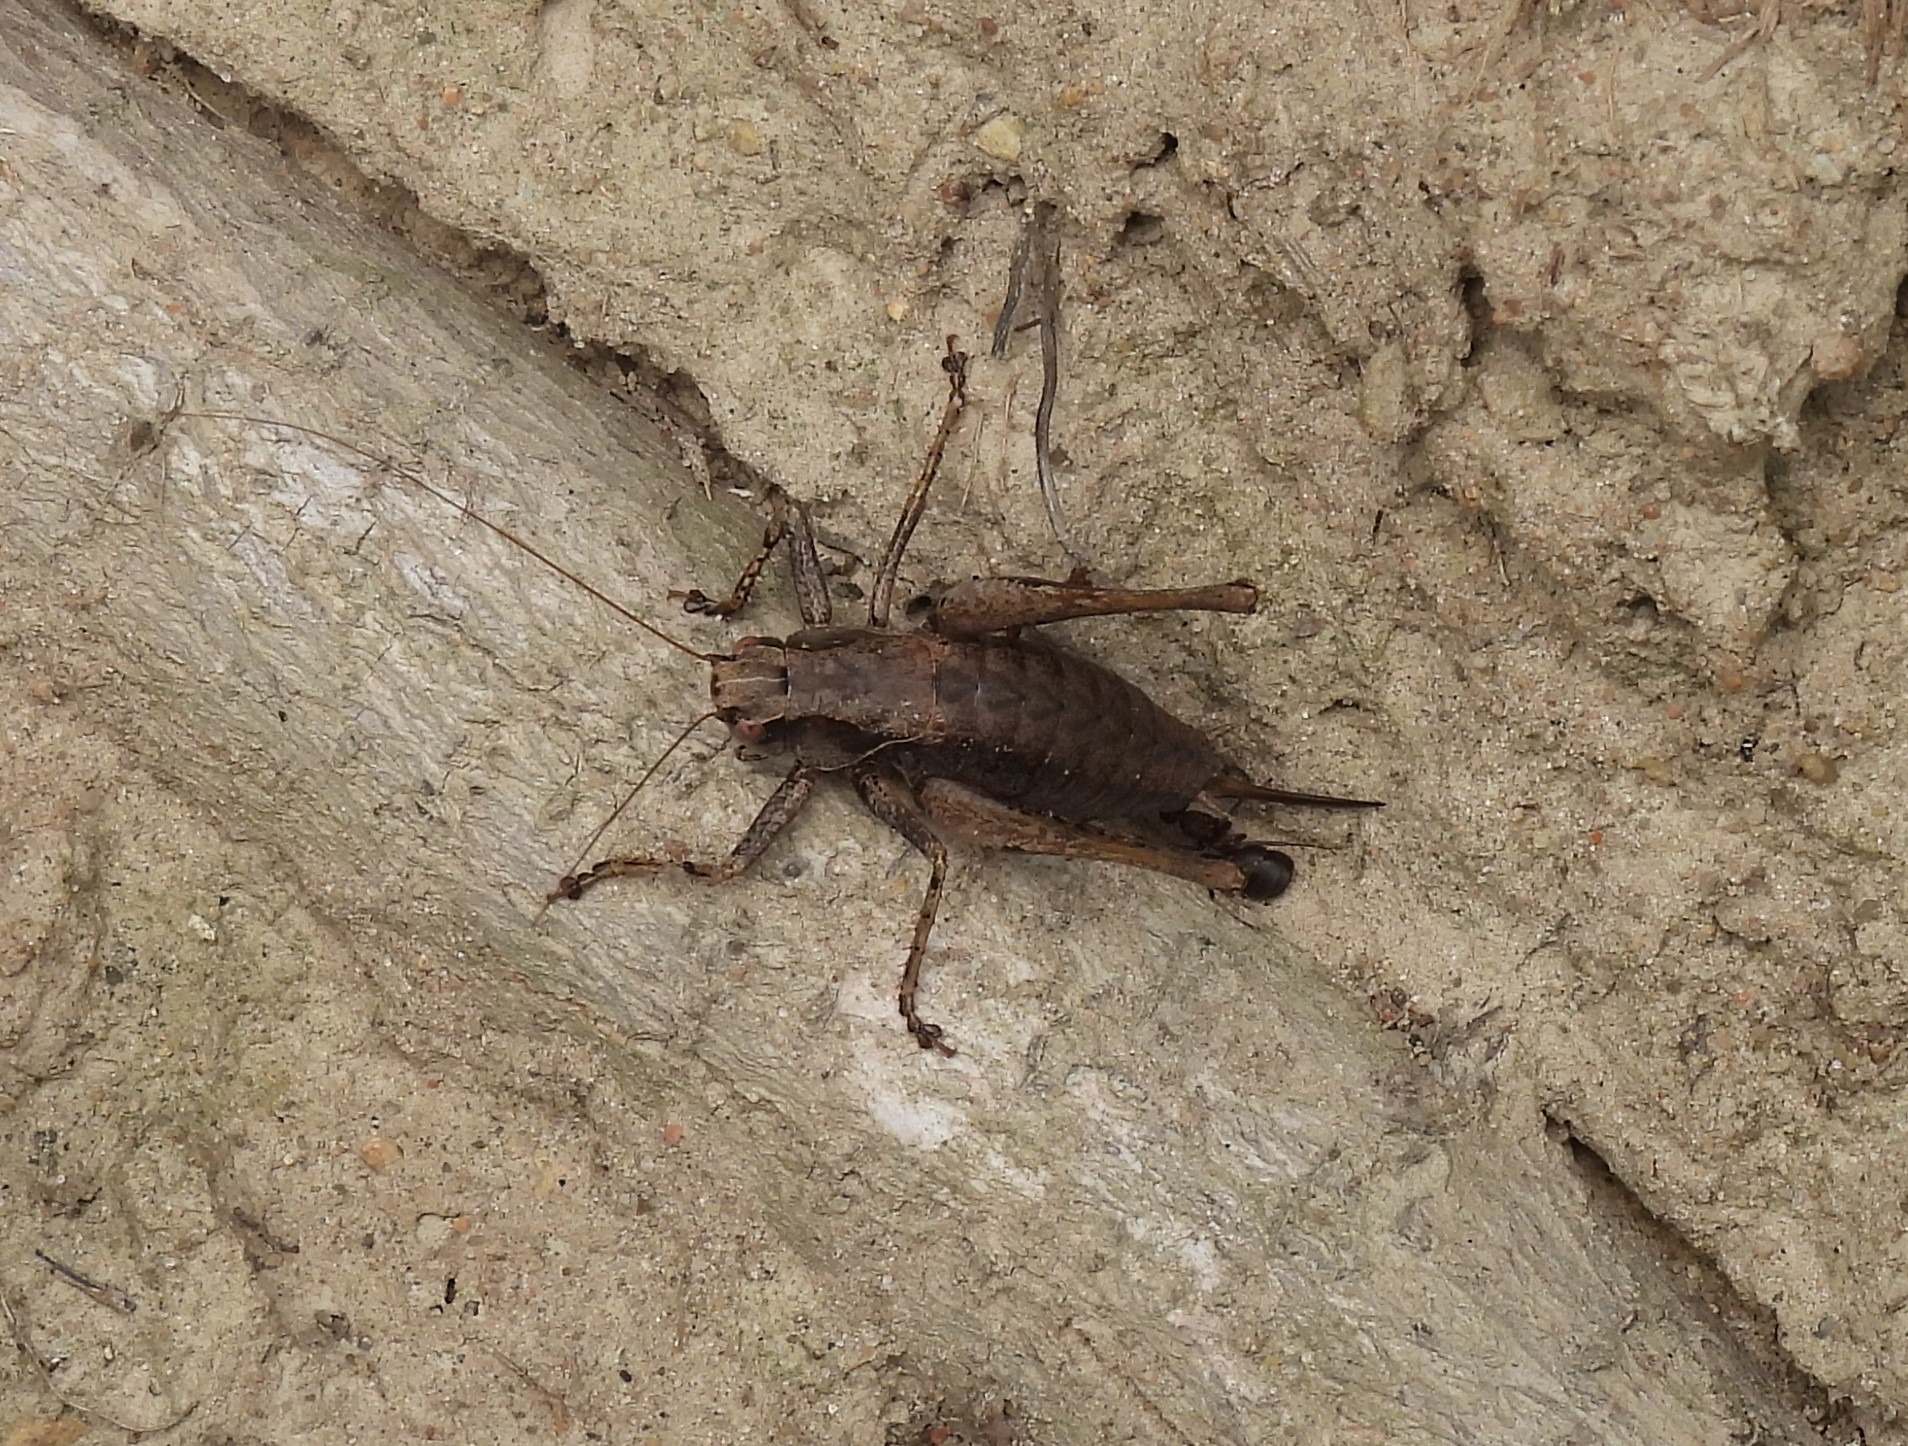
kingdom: Animalia
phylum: Arthropoda
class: Insecta
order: Orthoptera
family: Tettigoniidae
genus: Pholidoptera
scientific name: Pholidoptera griseoaptera
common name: Buskgræshoppe
